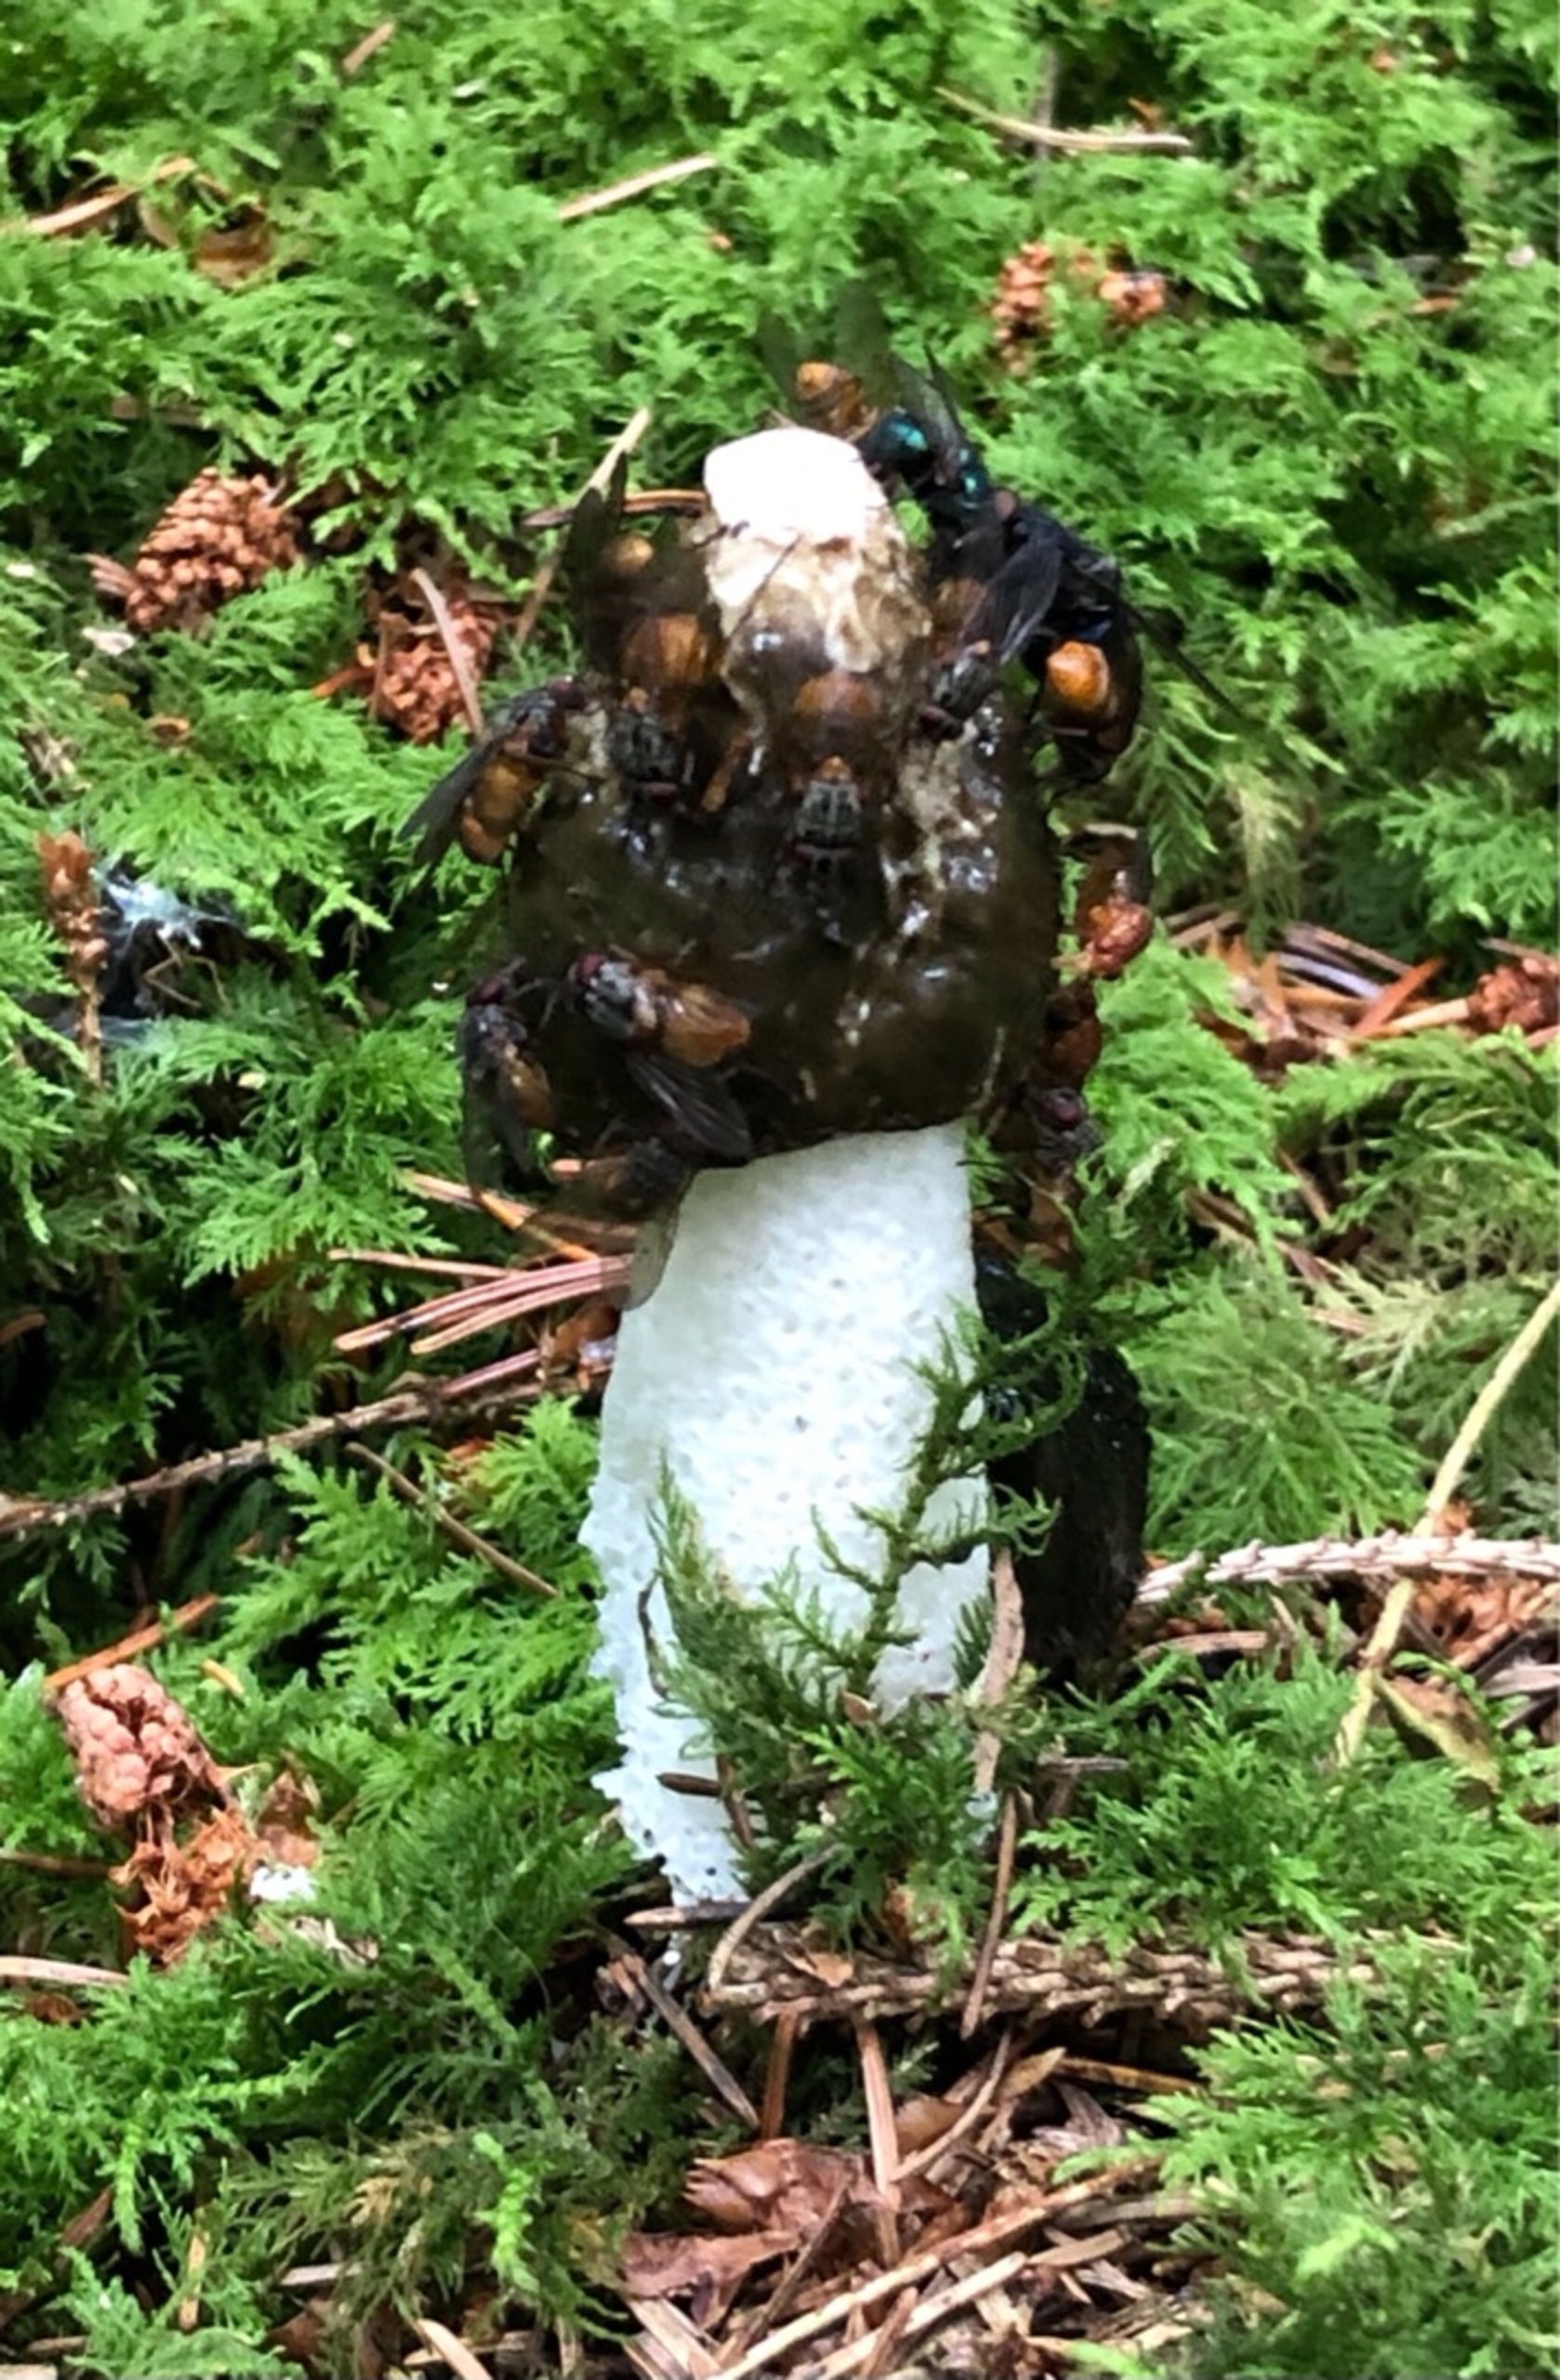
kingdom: Fungi
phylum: Basidiomycota
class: Agaricomycetes
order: Phallales
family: Phallaceae
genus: Phallus
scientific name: Phallus impudicus
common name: Almindelig stinksvamp
